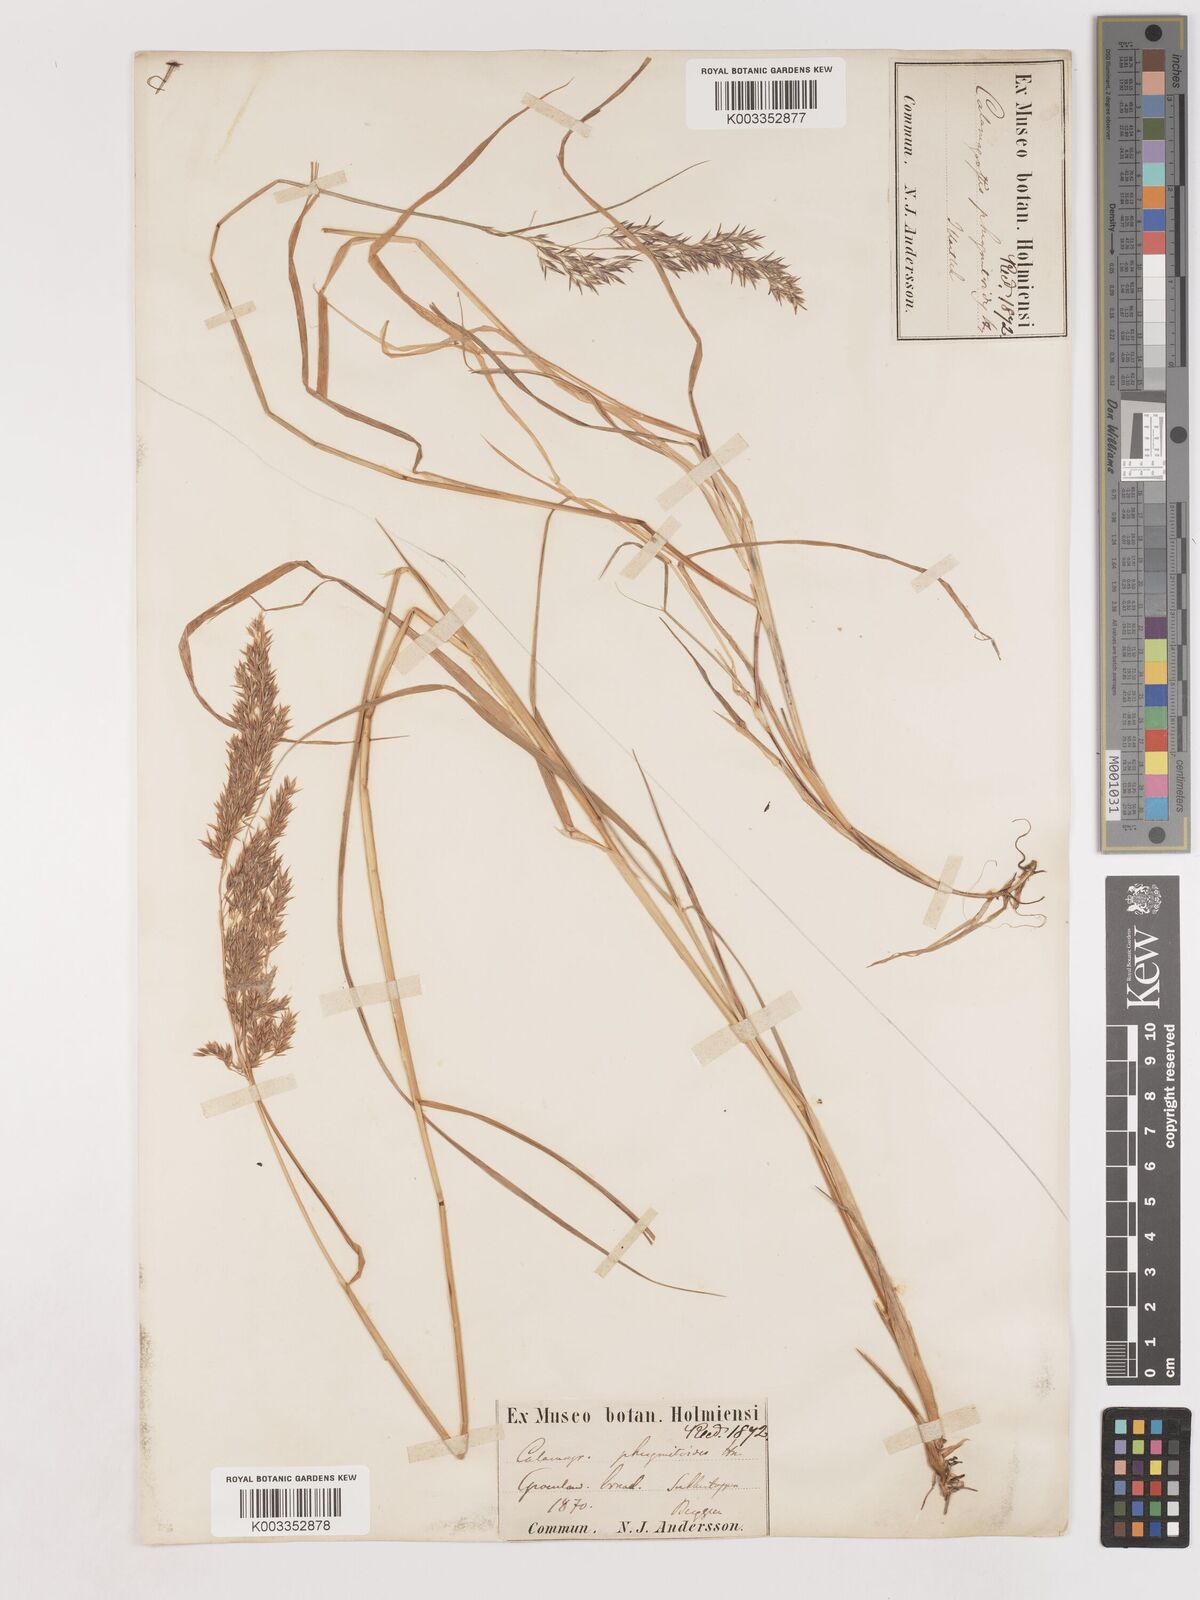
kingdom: Plantae
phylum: Tracheophyta
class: Liliopsida
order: Poales
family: Poaceae
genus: Calamagrostis
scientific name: Calamagrostis purpurea
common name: Scandinavian small-reed
